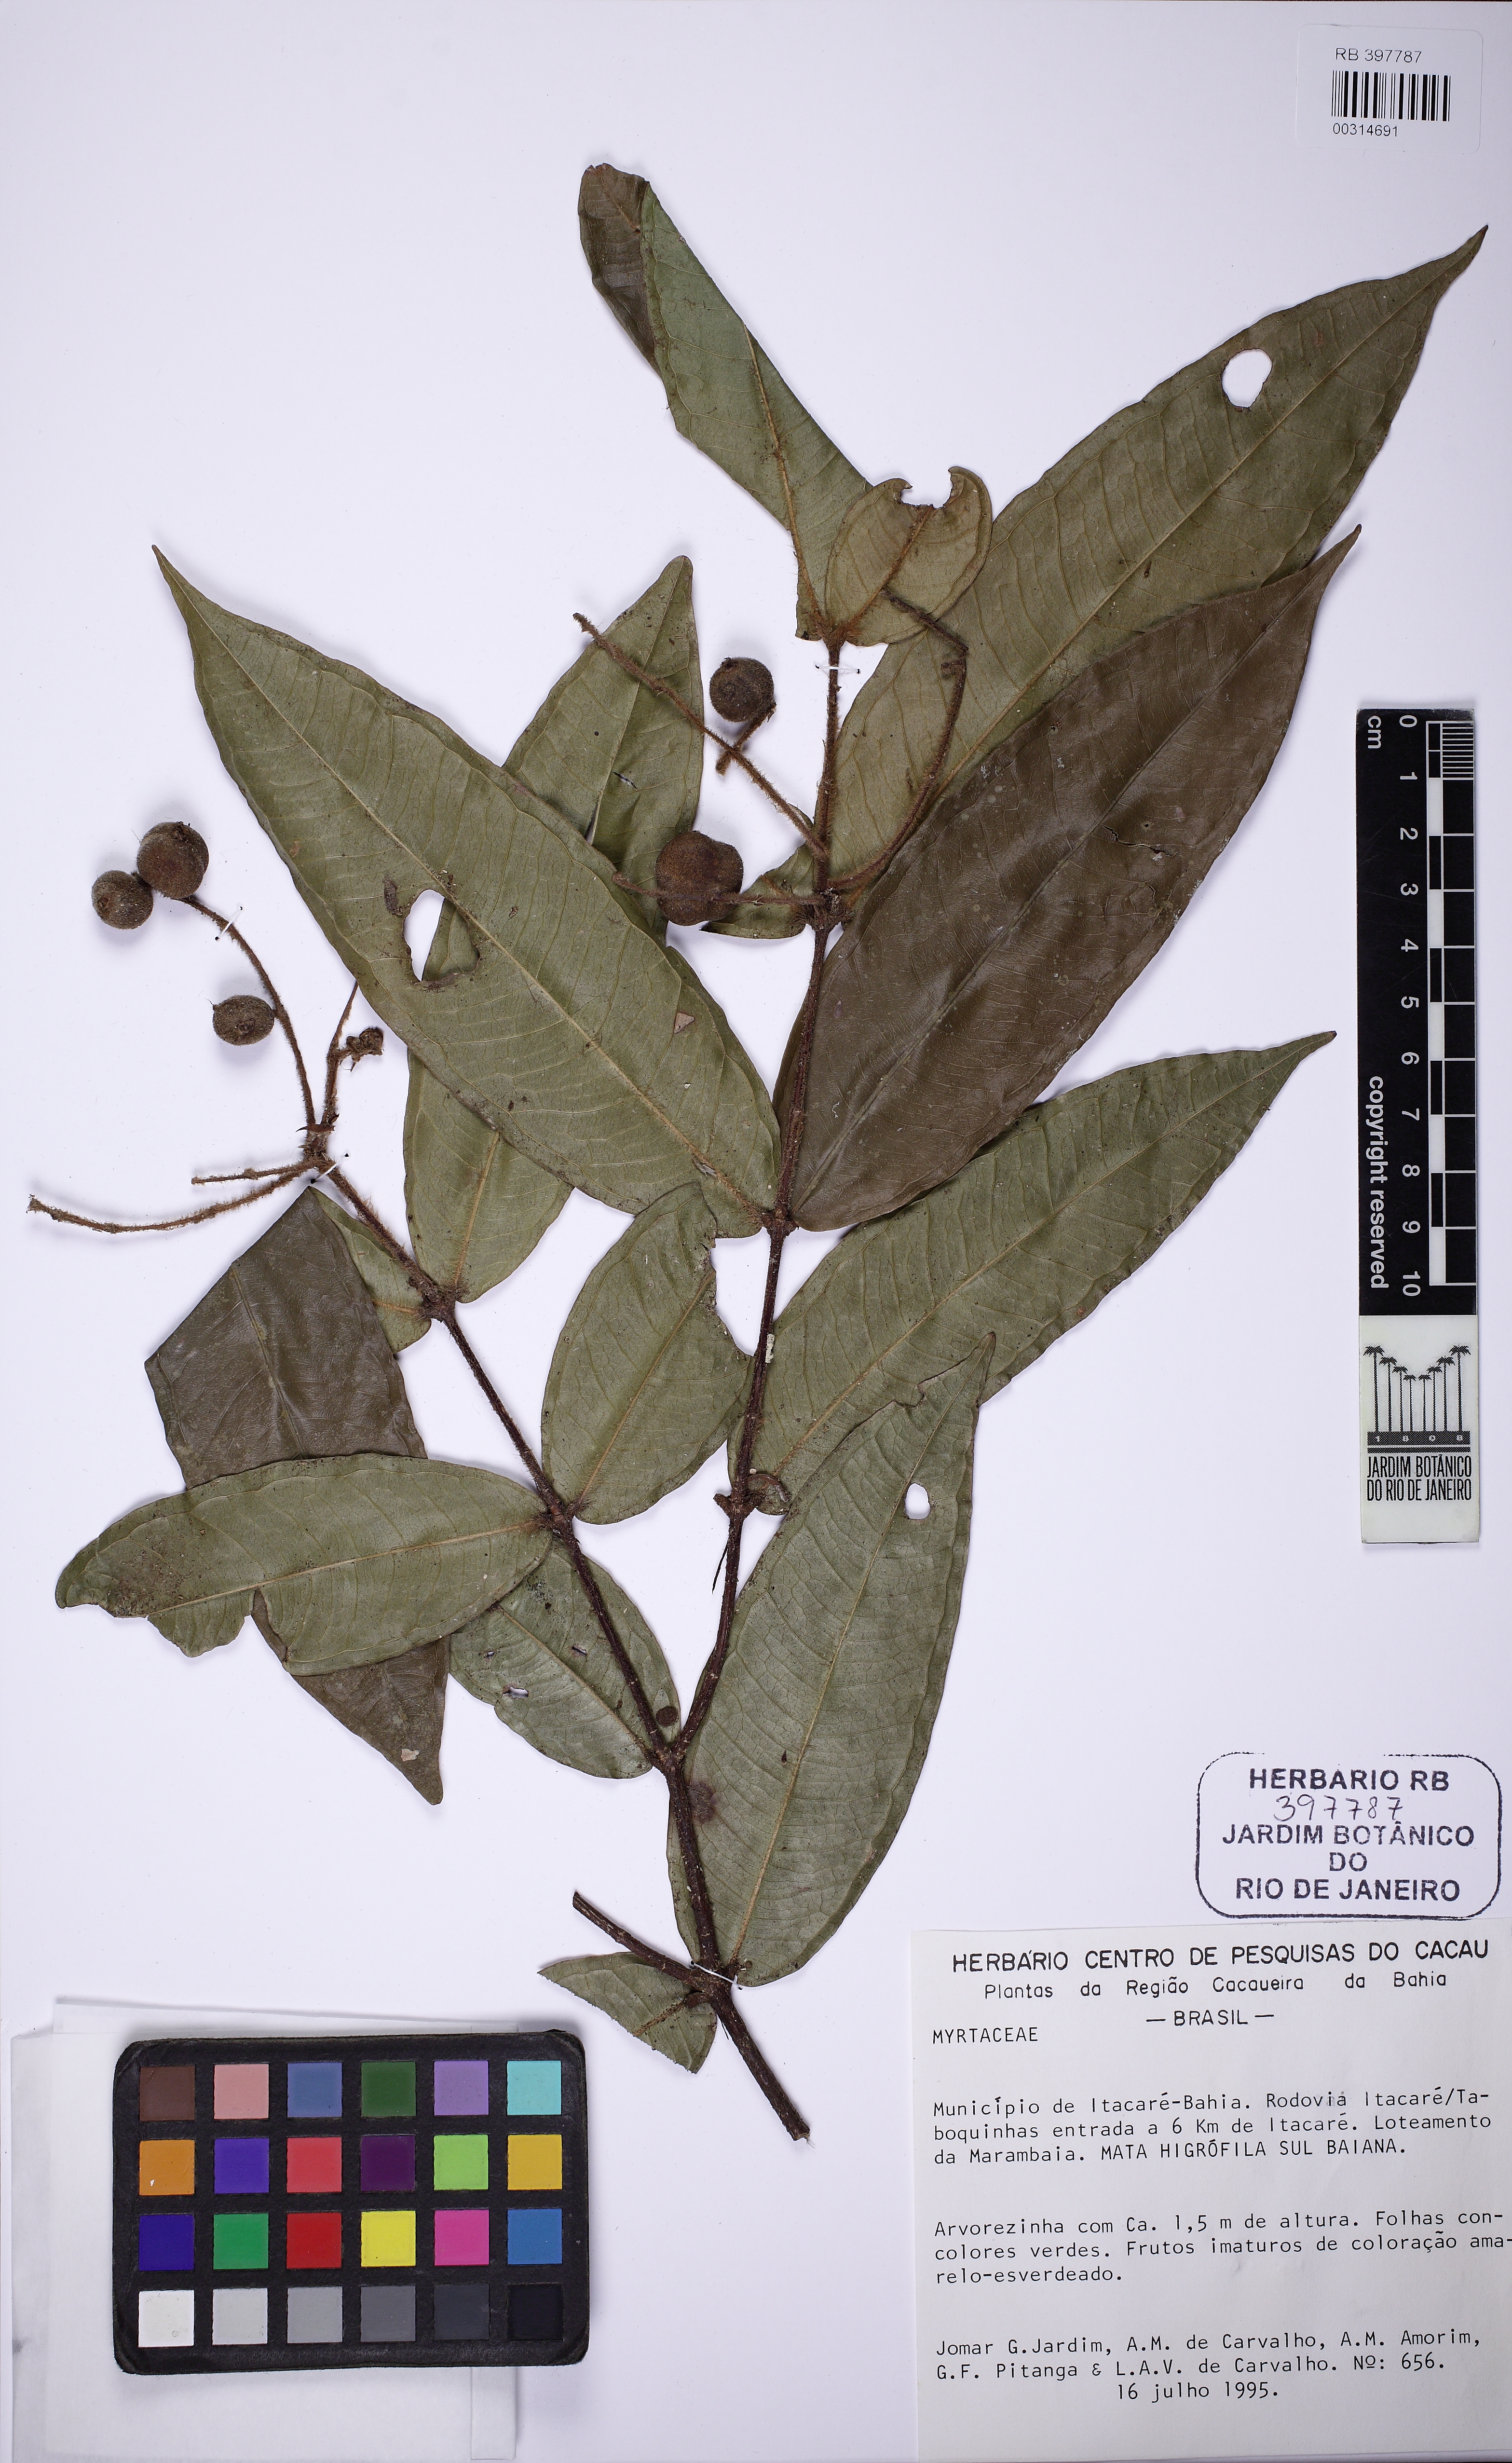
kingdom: Plantae
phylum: Tracheophyta
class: Magnoliopsida
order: Myrtales
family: Myrtaceae
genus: Myrcia
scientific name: Myrcia
